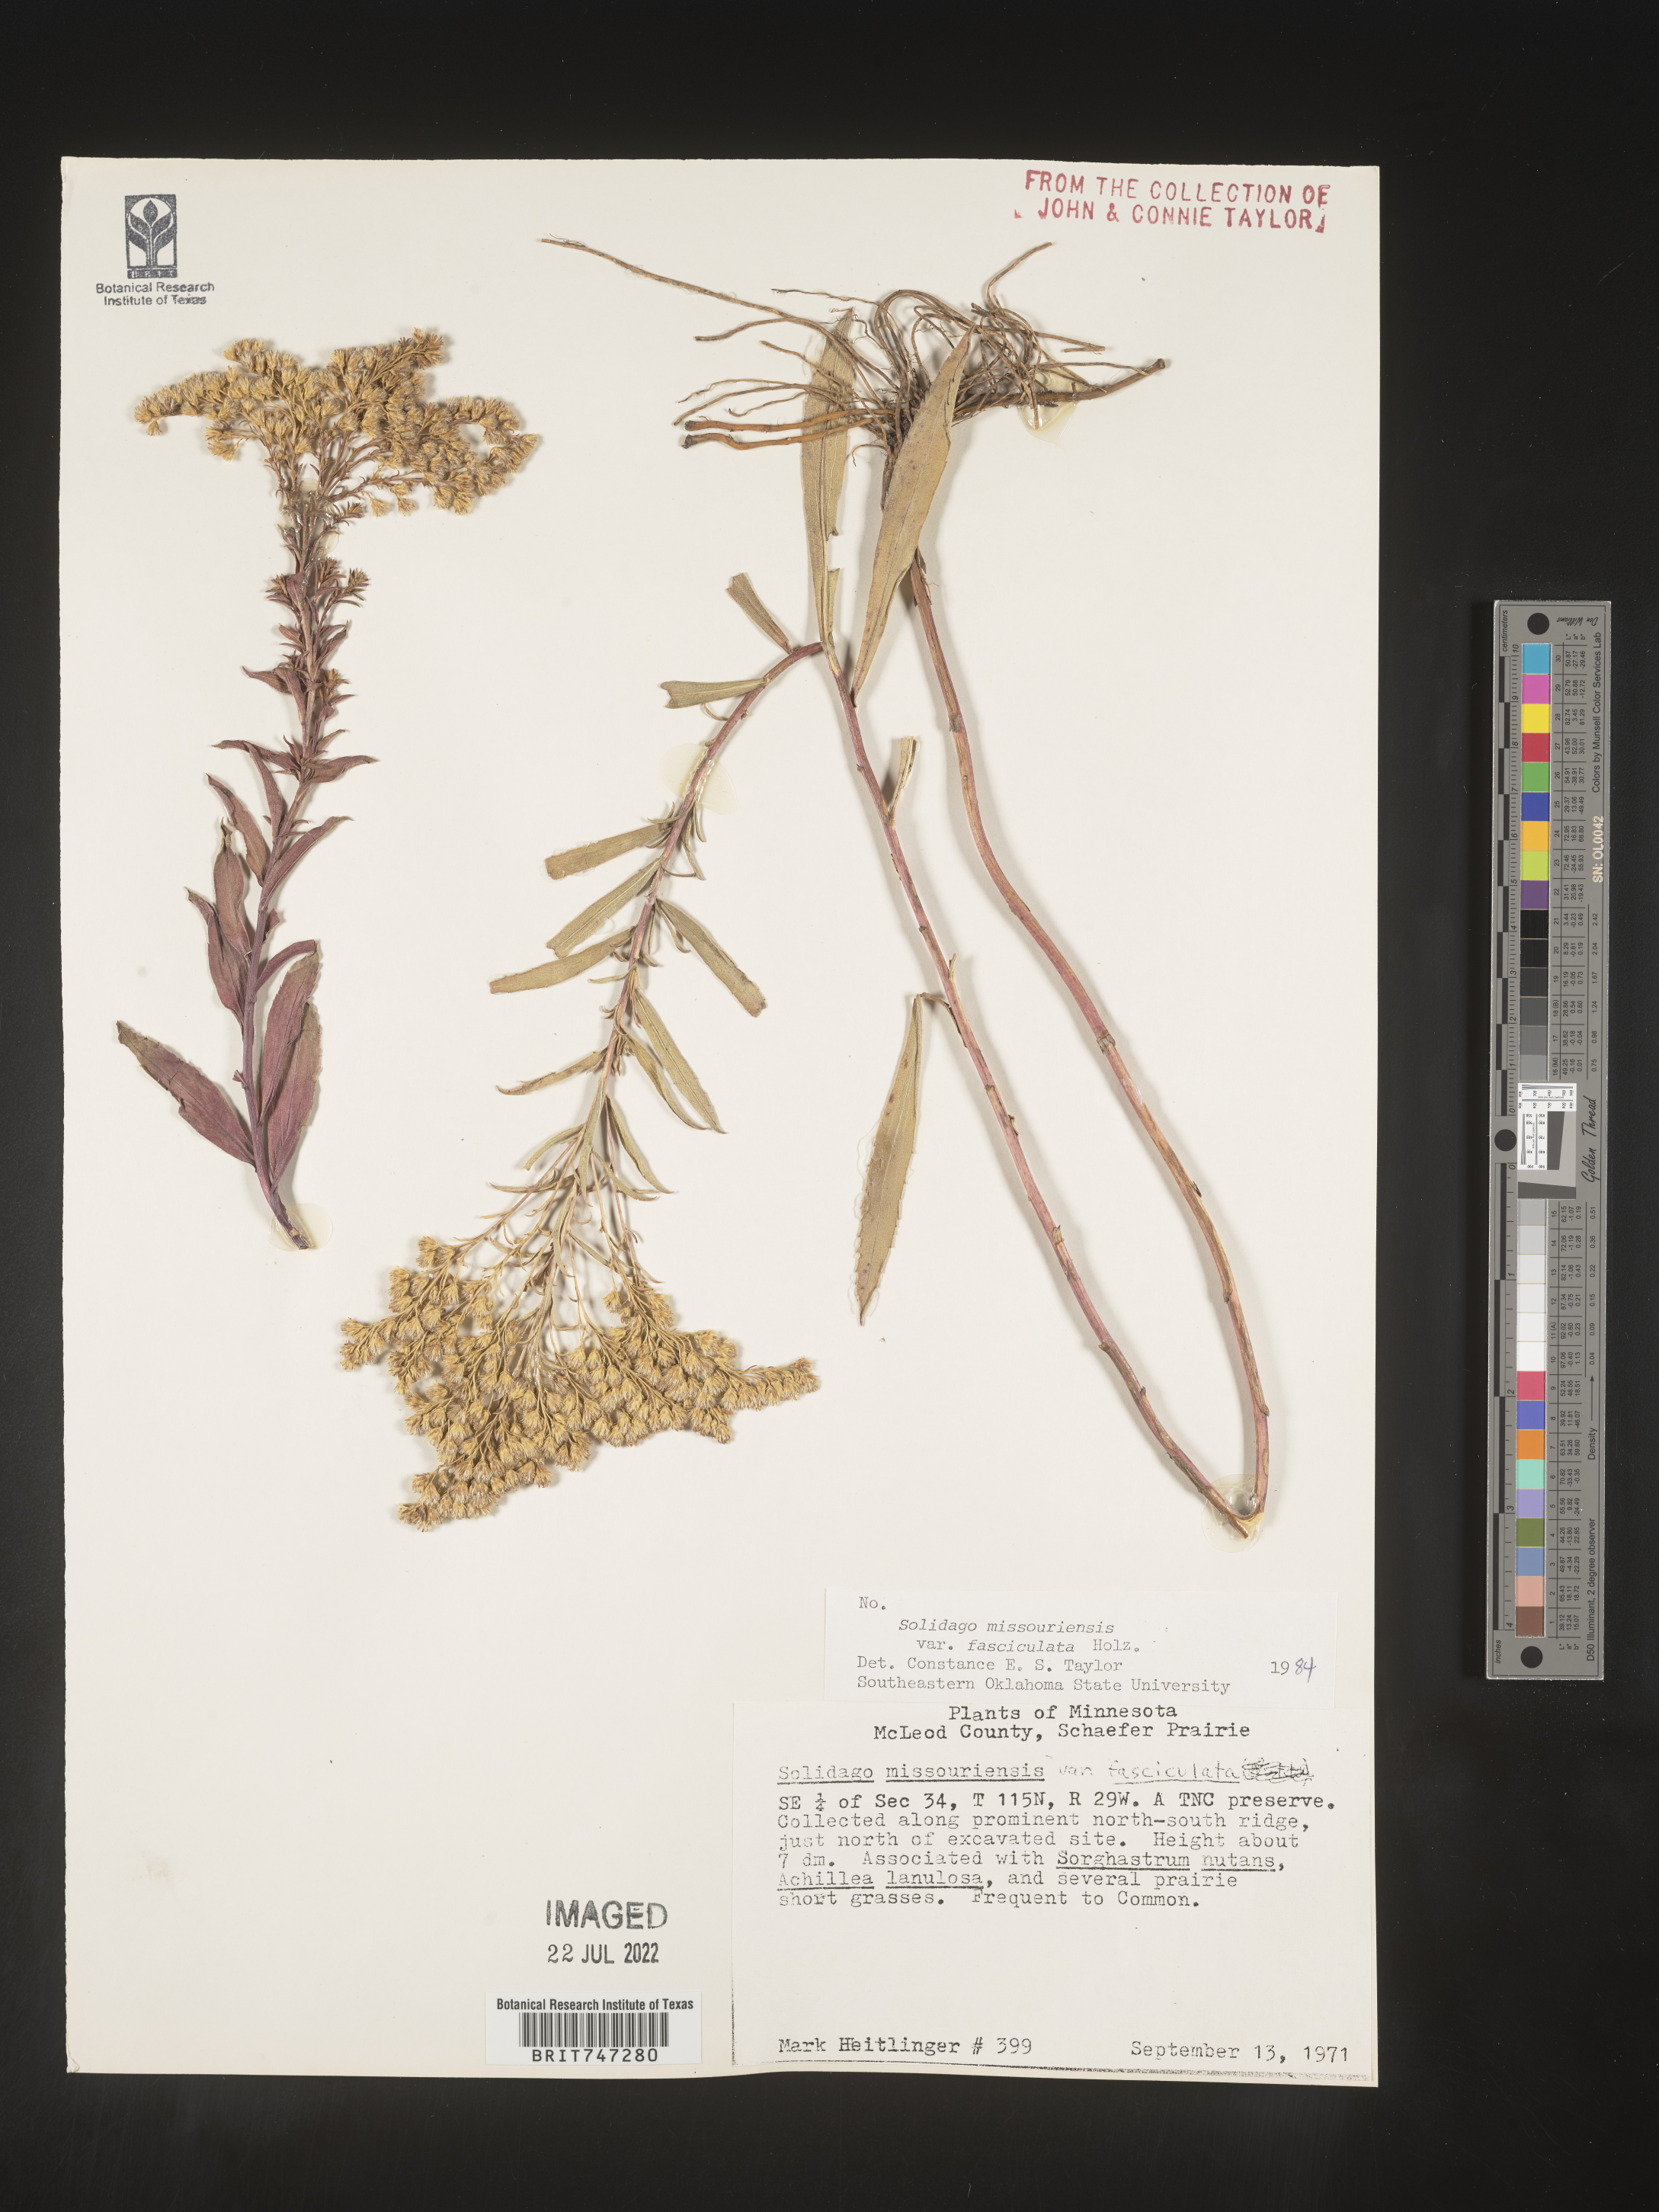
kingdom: Plantae
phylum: Tracheophyta
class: Magnoliopsida
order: Asterales
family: Asteraceae
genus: Solidago
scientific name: Solidago missouriensis
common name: Prairie goldenrod
